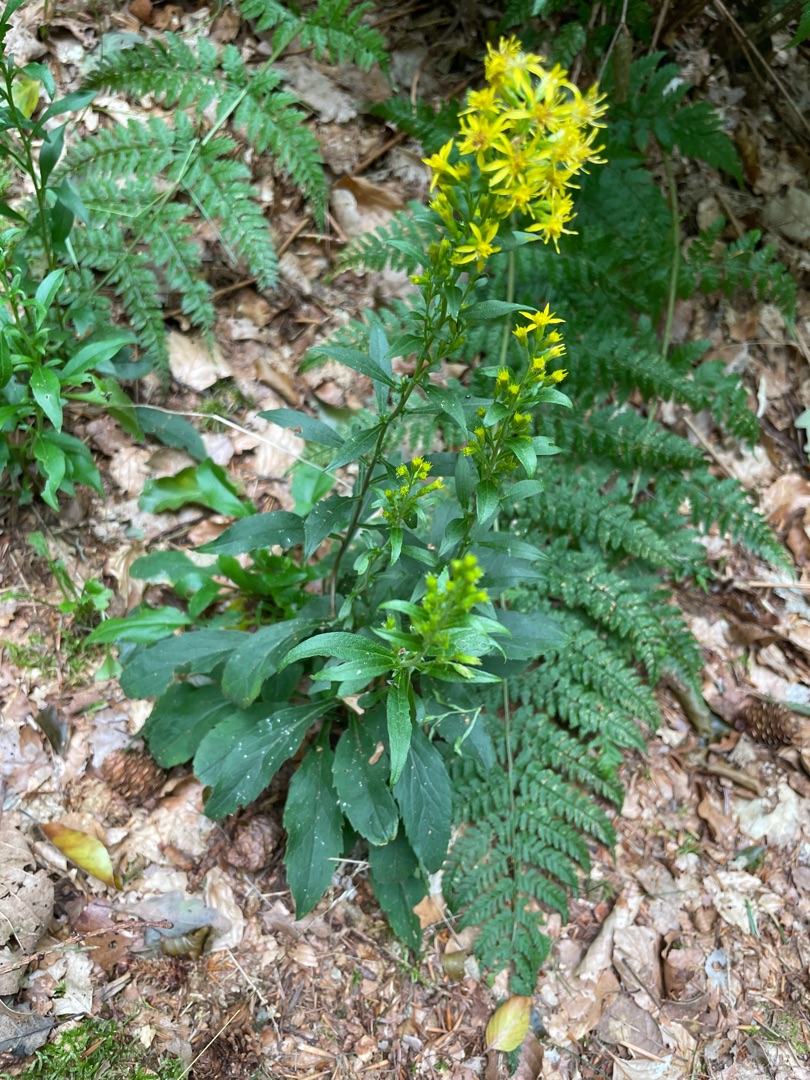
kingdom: Plantae
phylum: Tracheophyta
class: Magnoliopsida
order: Asterales
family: Asteraceae
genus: Solidago
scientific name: Solidago virgaurea
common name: Almindelig gyldenris
